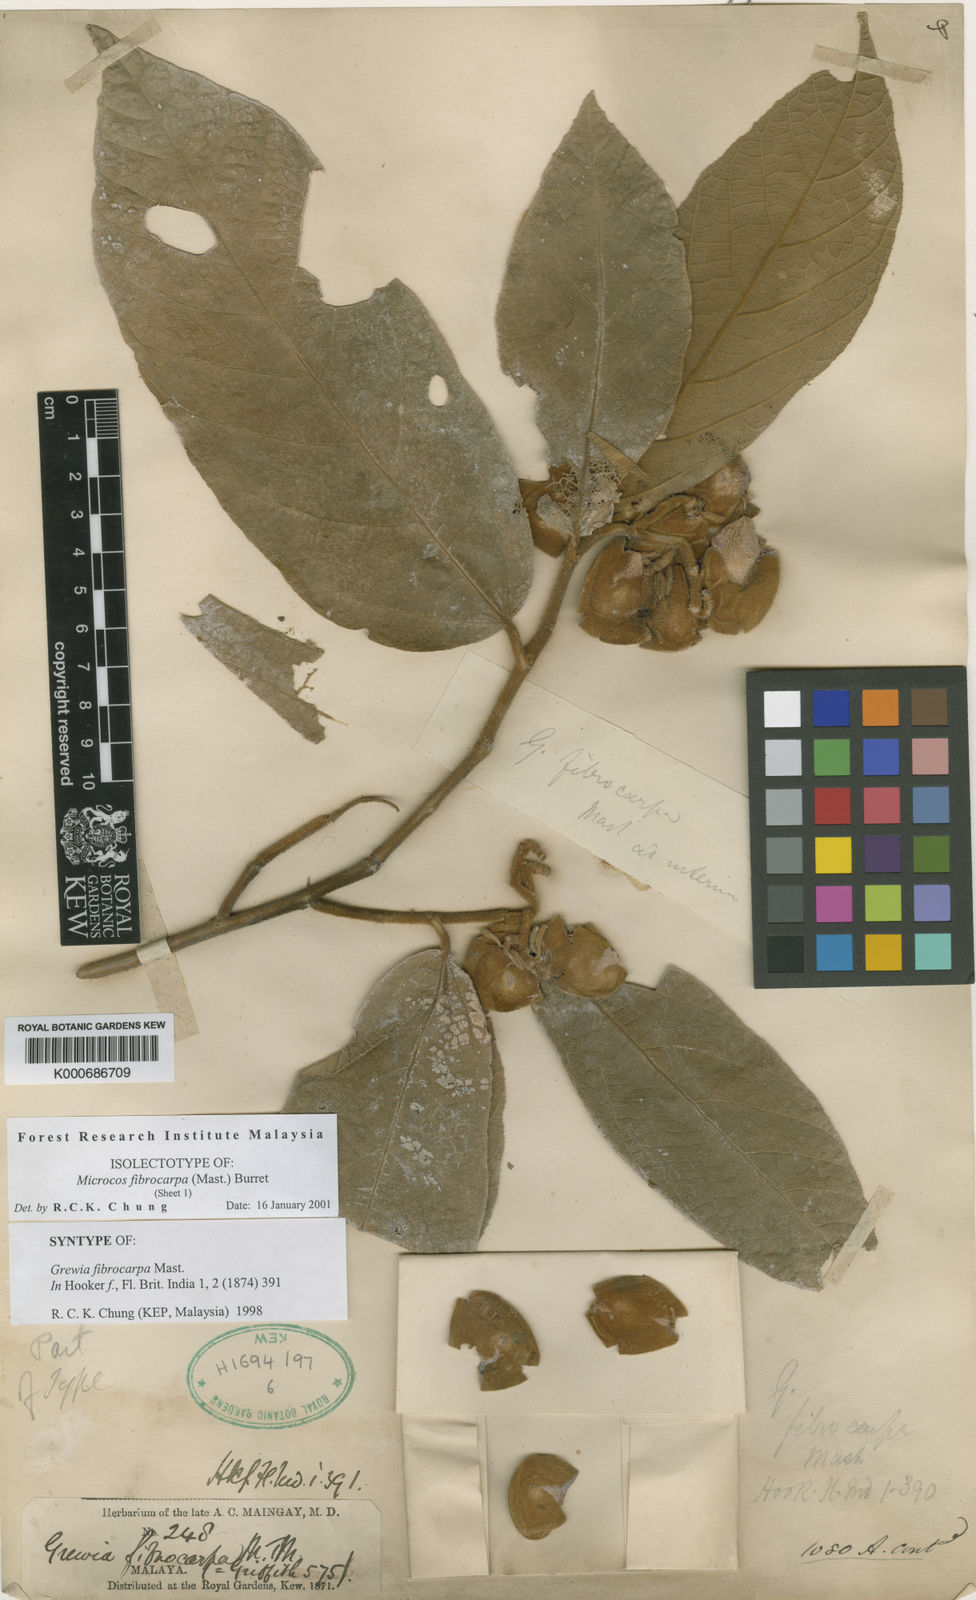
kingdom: Plantae
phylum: Tracheophyta
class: Magnoliopsida
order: Malvales
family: Malvaceae
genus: Microcos
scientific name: Microcos fibrocarpa
